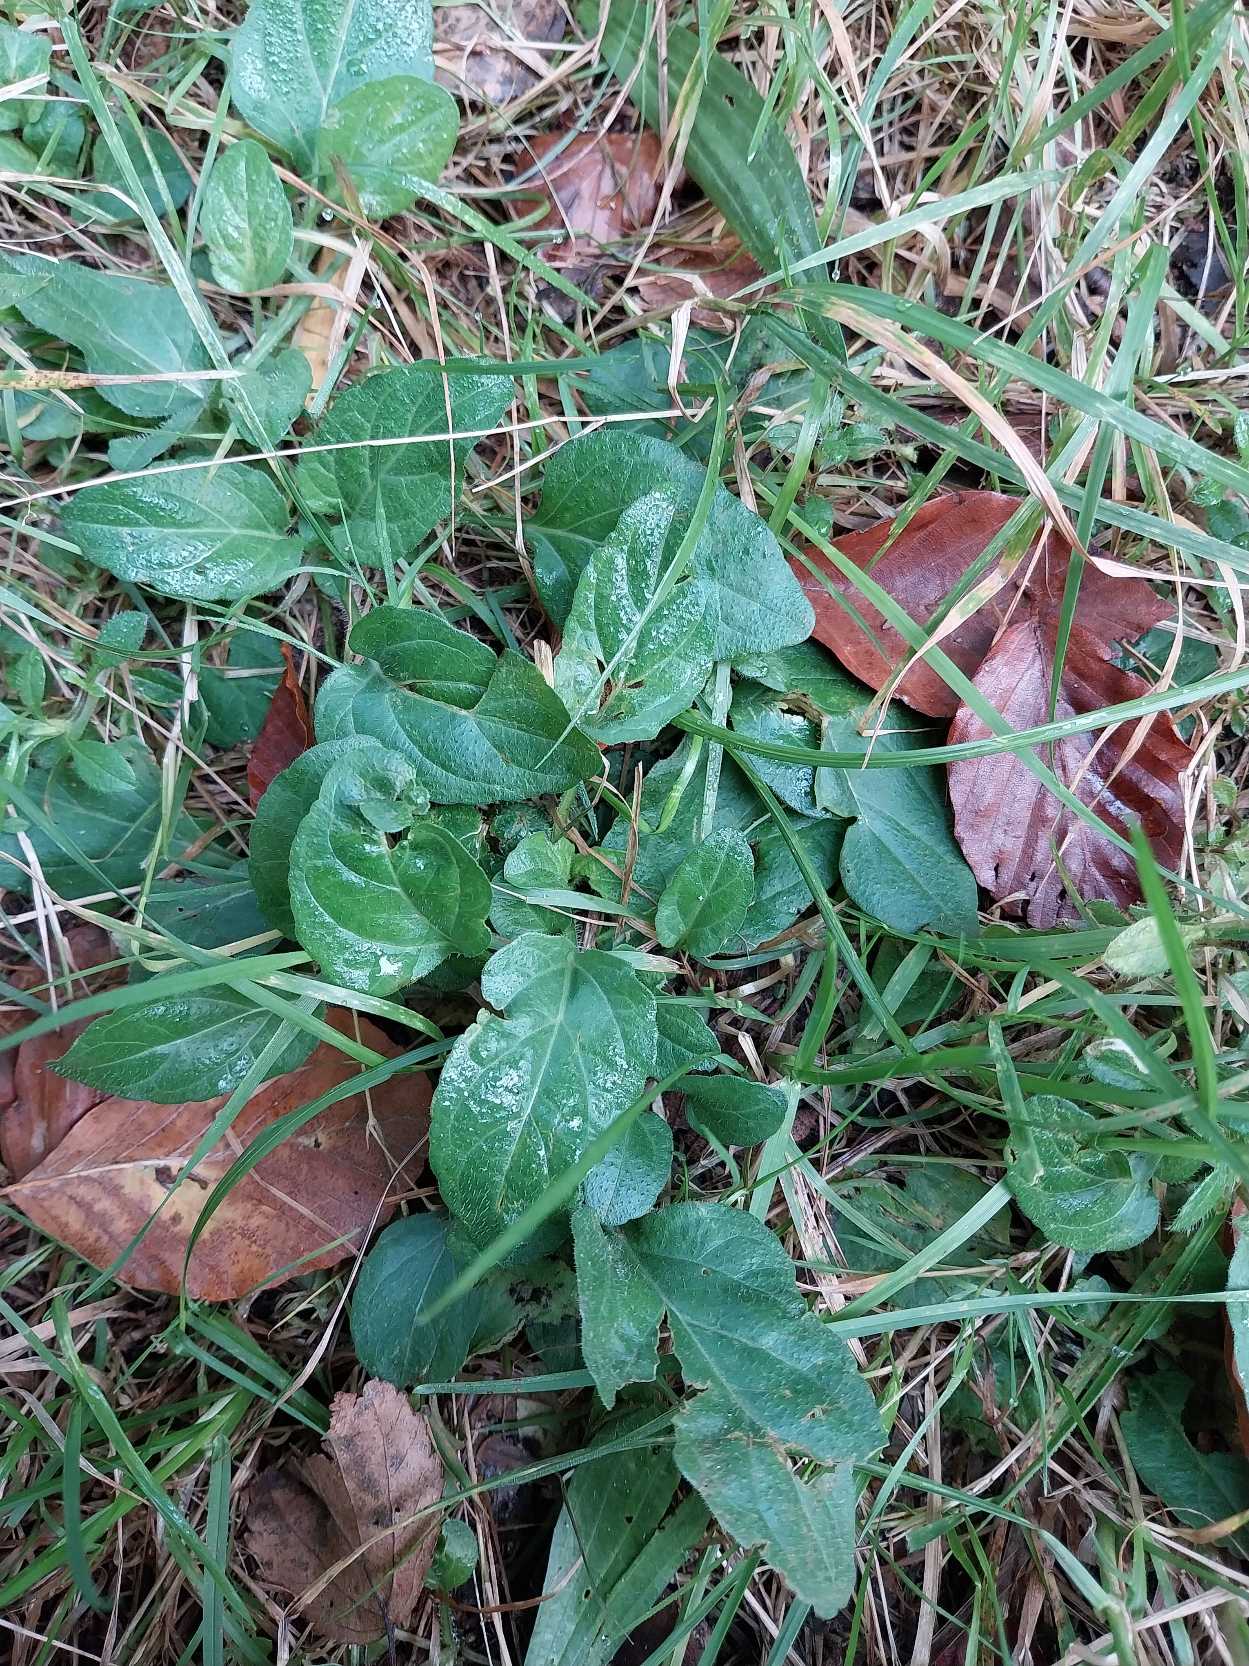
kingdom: Plantae
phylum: Tracheophyta
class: Magnoliopsida
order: Lamiales
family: Lamiaceae
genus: Prunella
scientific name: Prunella vulgaris
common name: Almindelig brunelle
